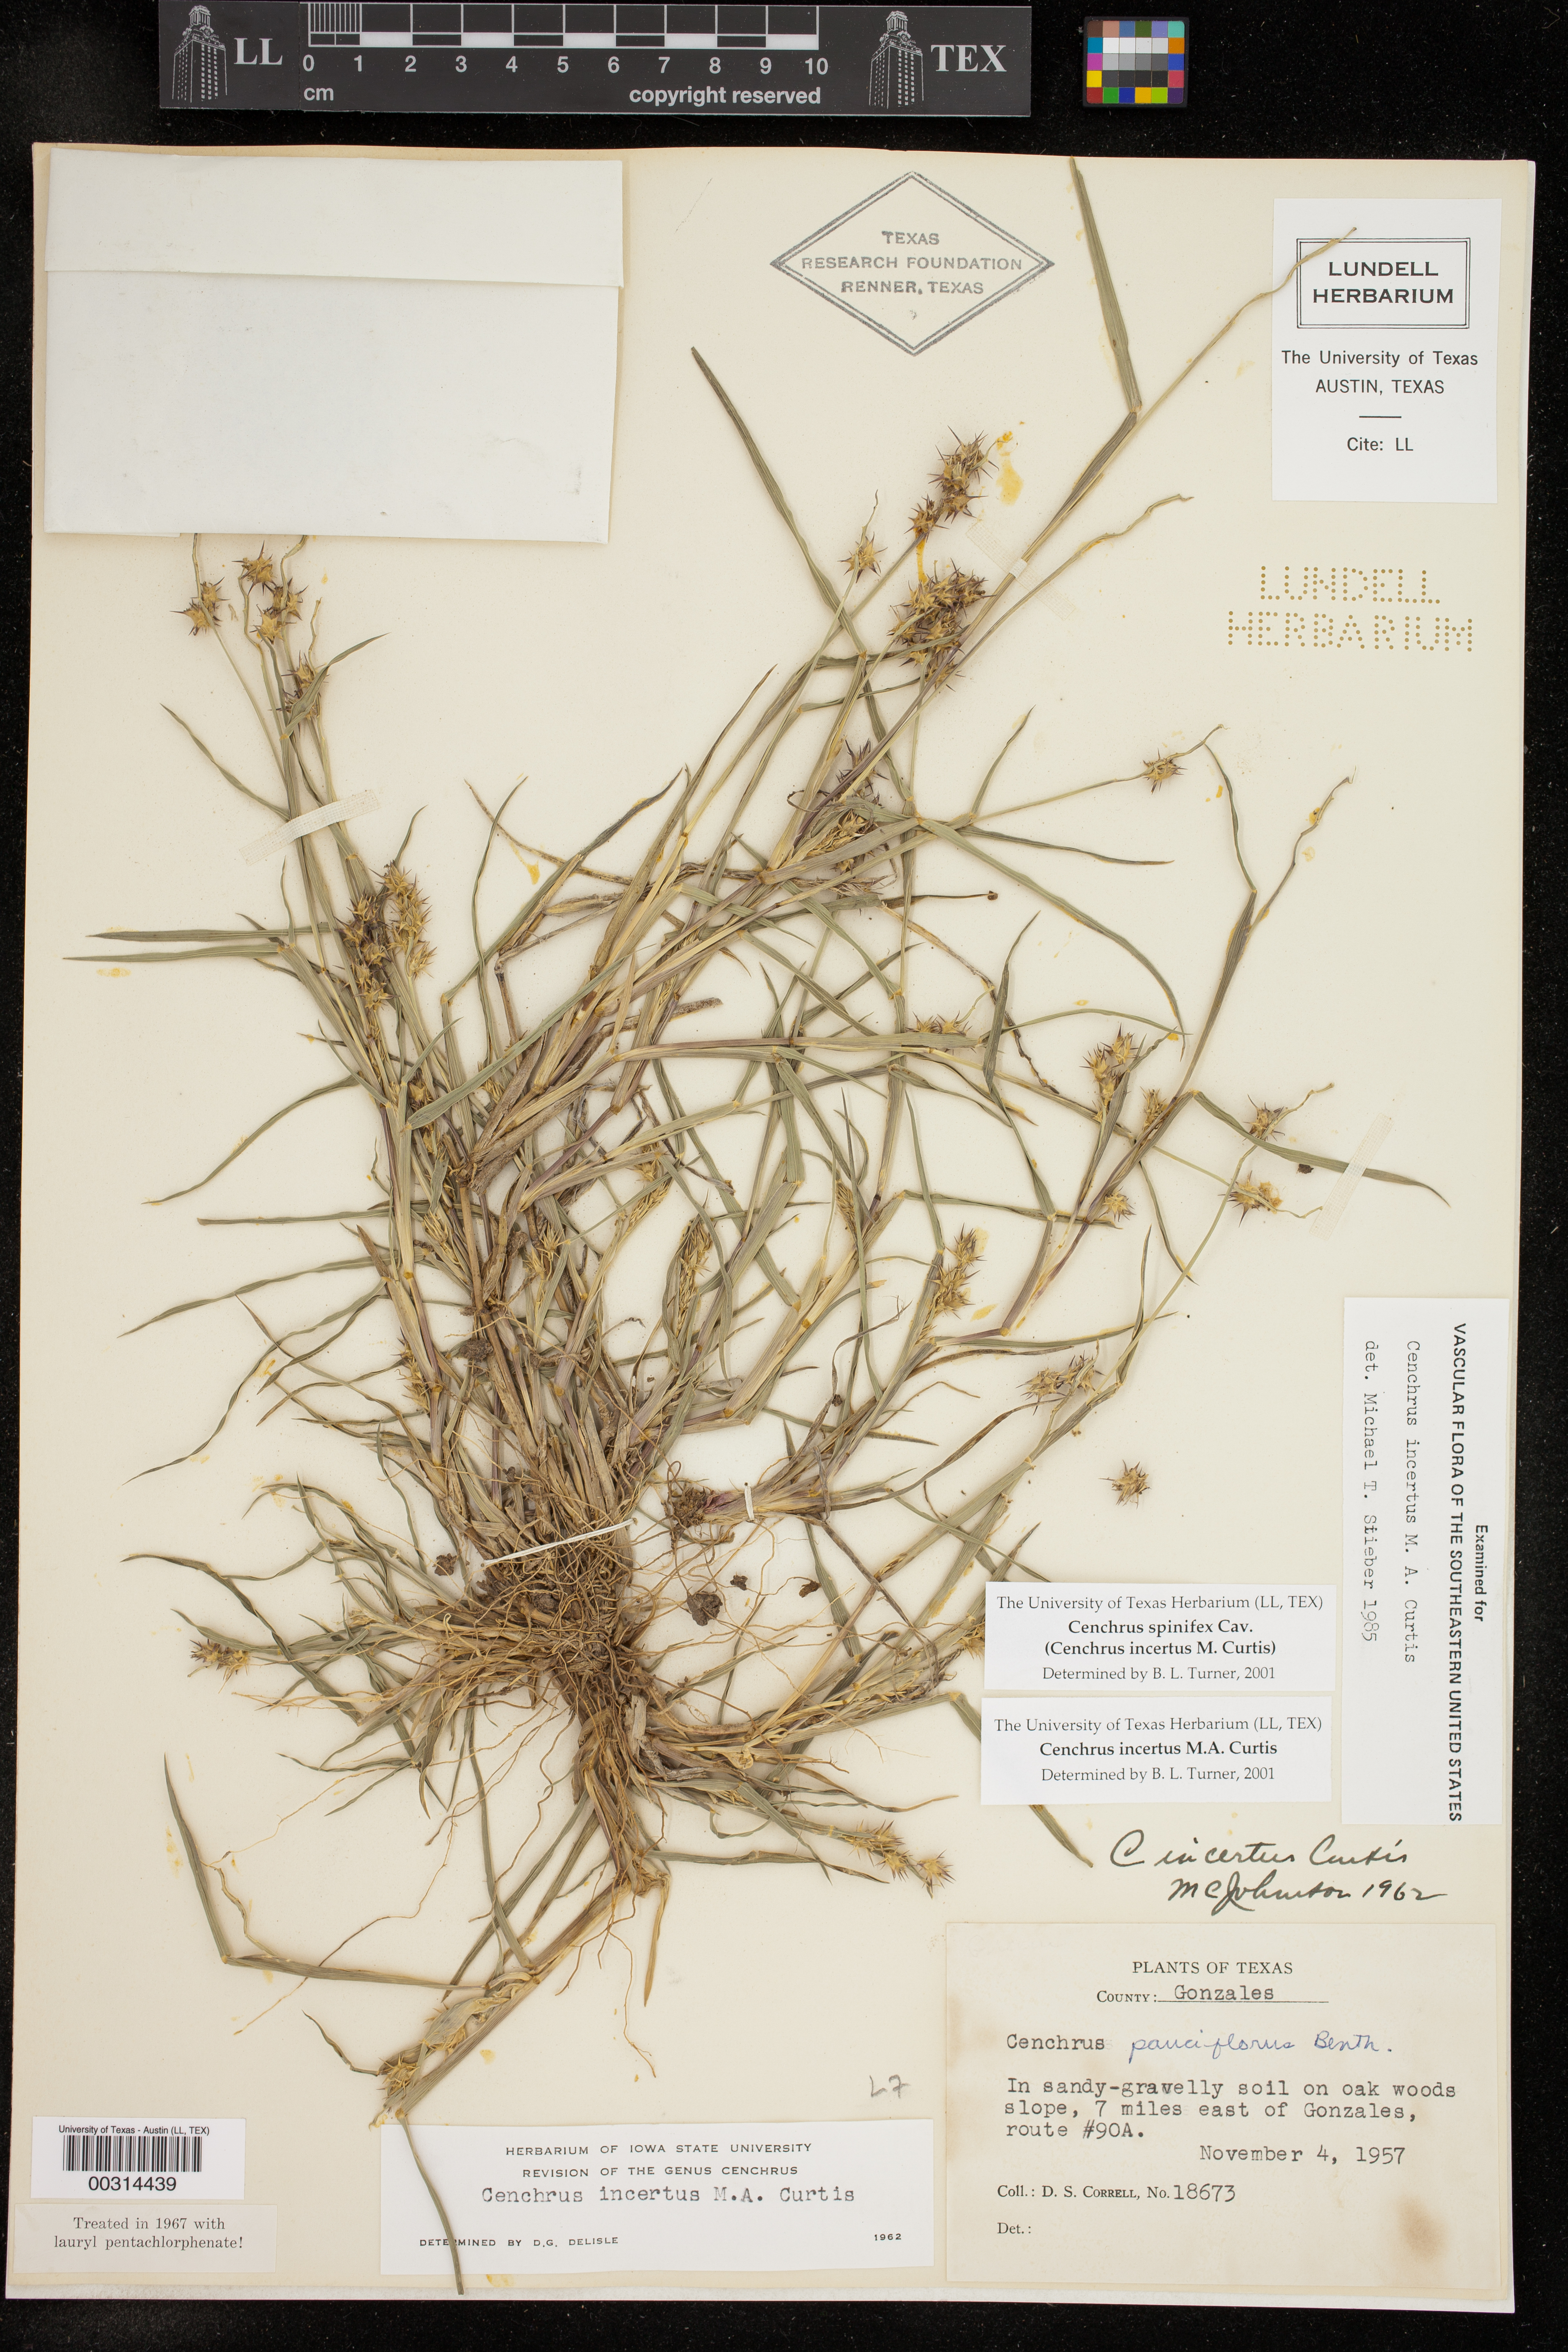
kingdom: Plantae
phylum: Tracheophyta
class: Liliopsida
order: Poales
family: Poaceae
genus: Cenchrus
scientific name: Cenchrus spinifex
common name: Coast sandbur
